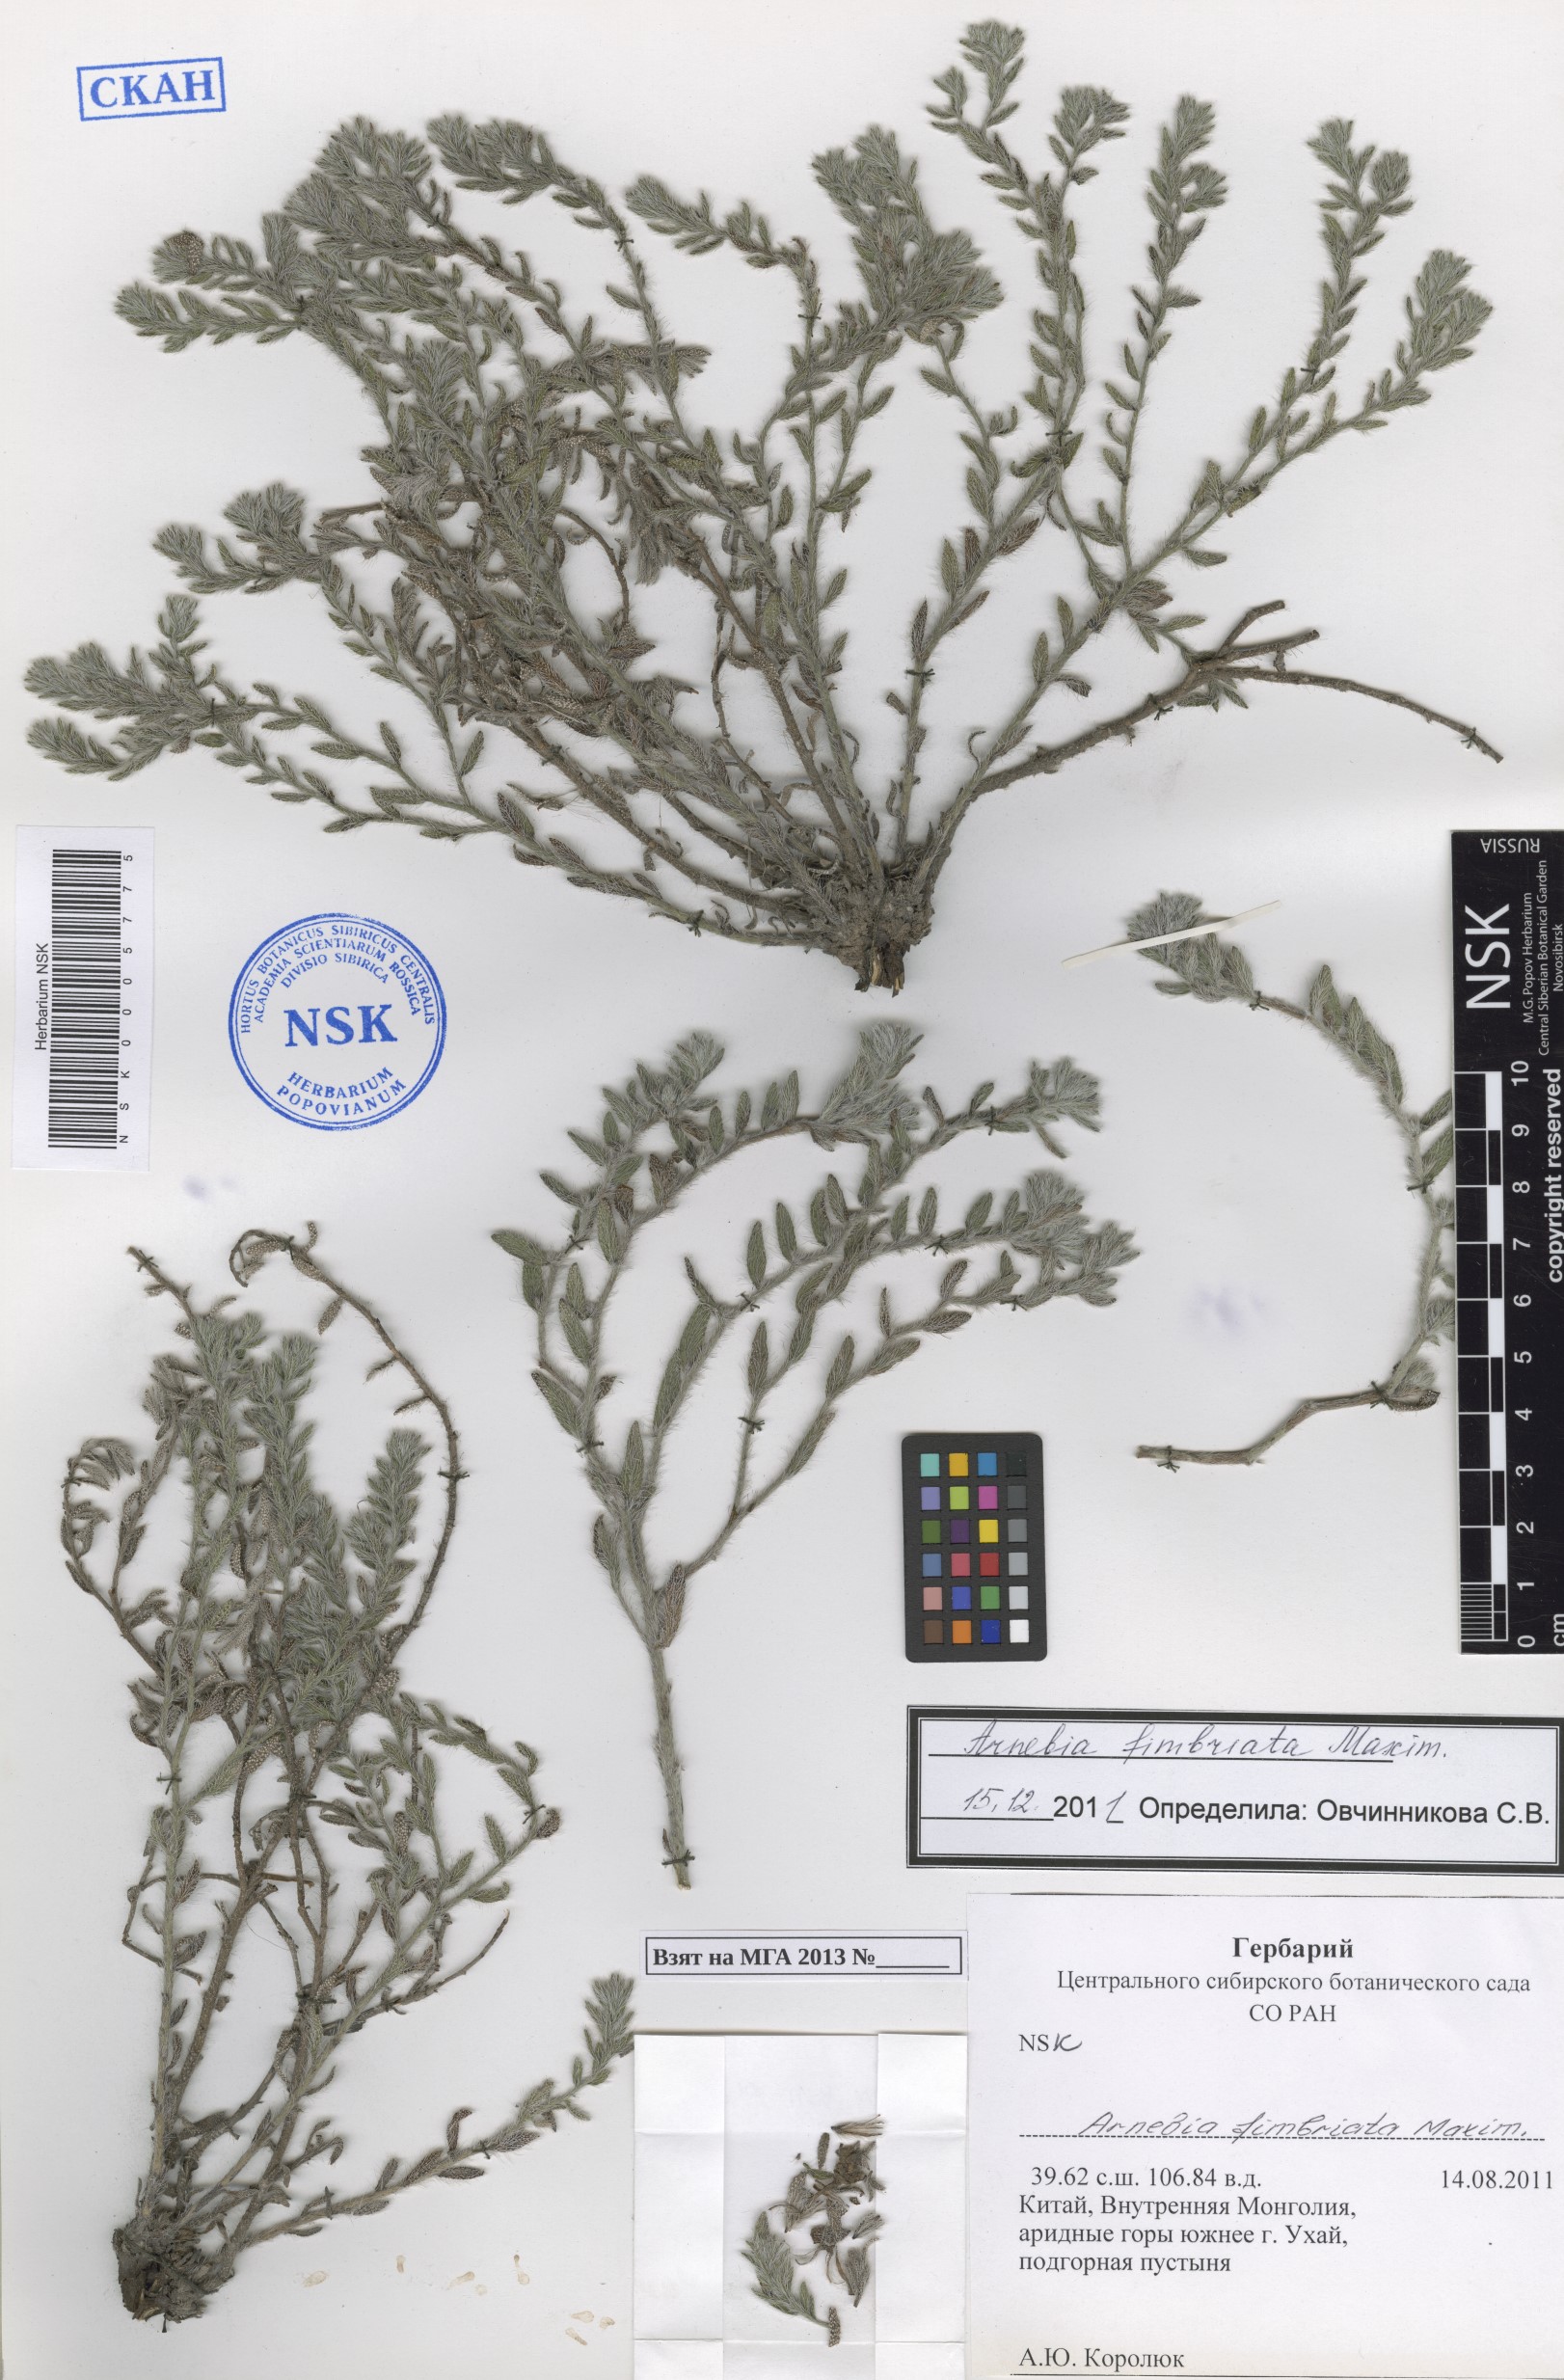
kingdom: Plantae
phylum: Tracheophyta
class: Magnoliopsida
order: Boraginales
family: Boraginaceae
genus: Arnebia
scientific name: Arnebia fimbriata
